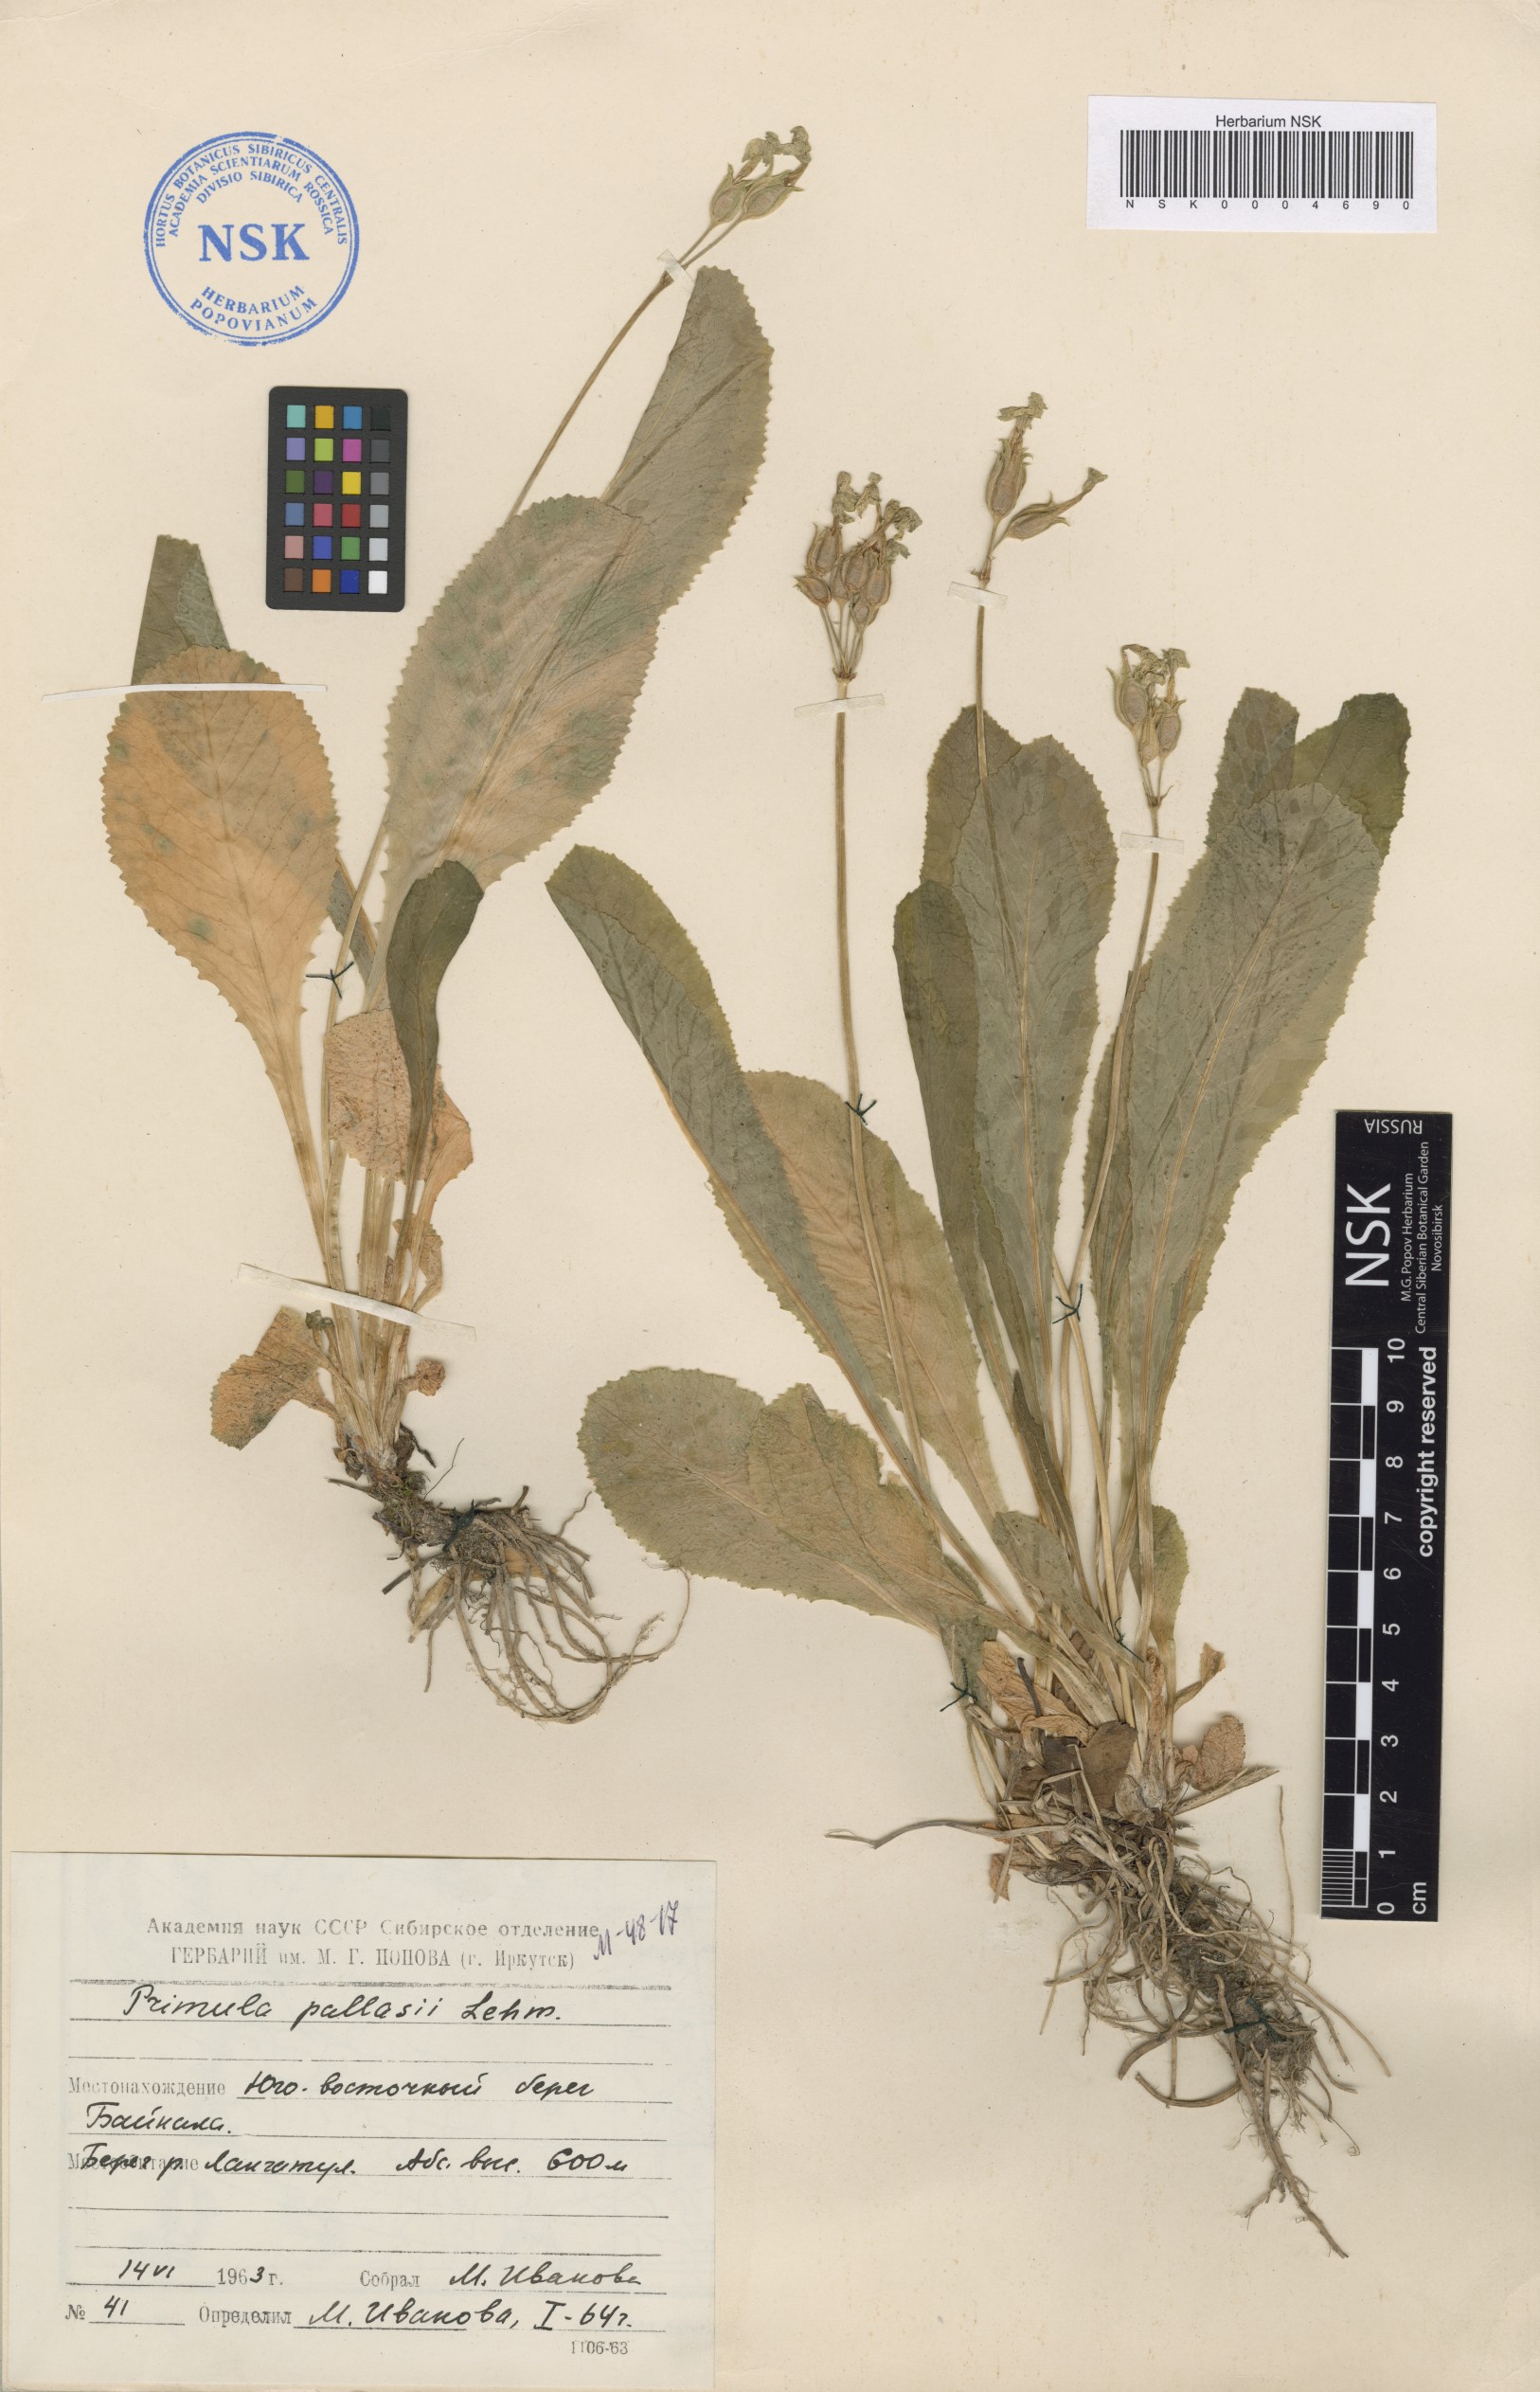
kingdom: Plantae
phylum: Tracheophyta
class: Magnoliopsida
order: Ericales
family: Primulaceae
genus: Primula
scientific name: Primula elatior
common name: Oxlip
